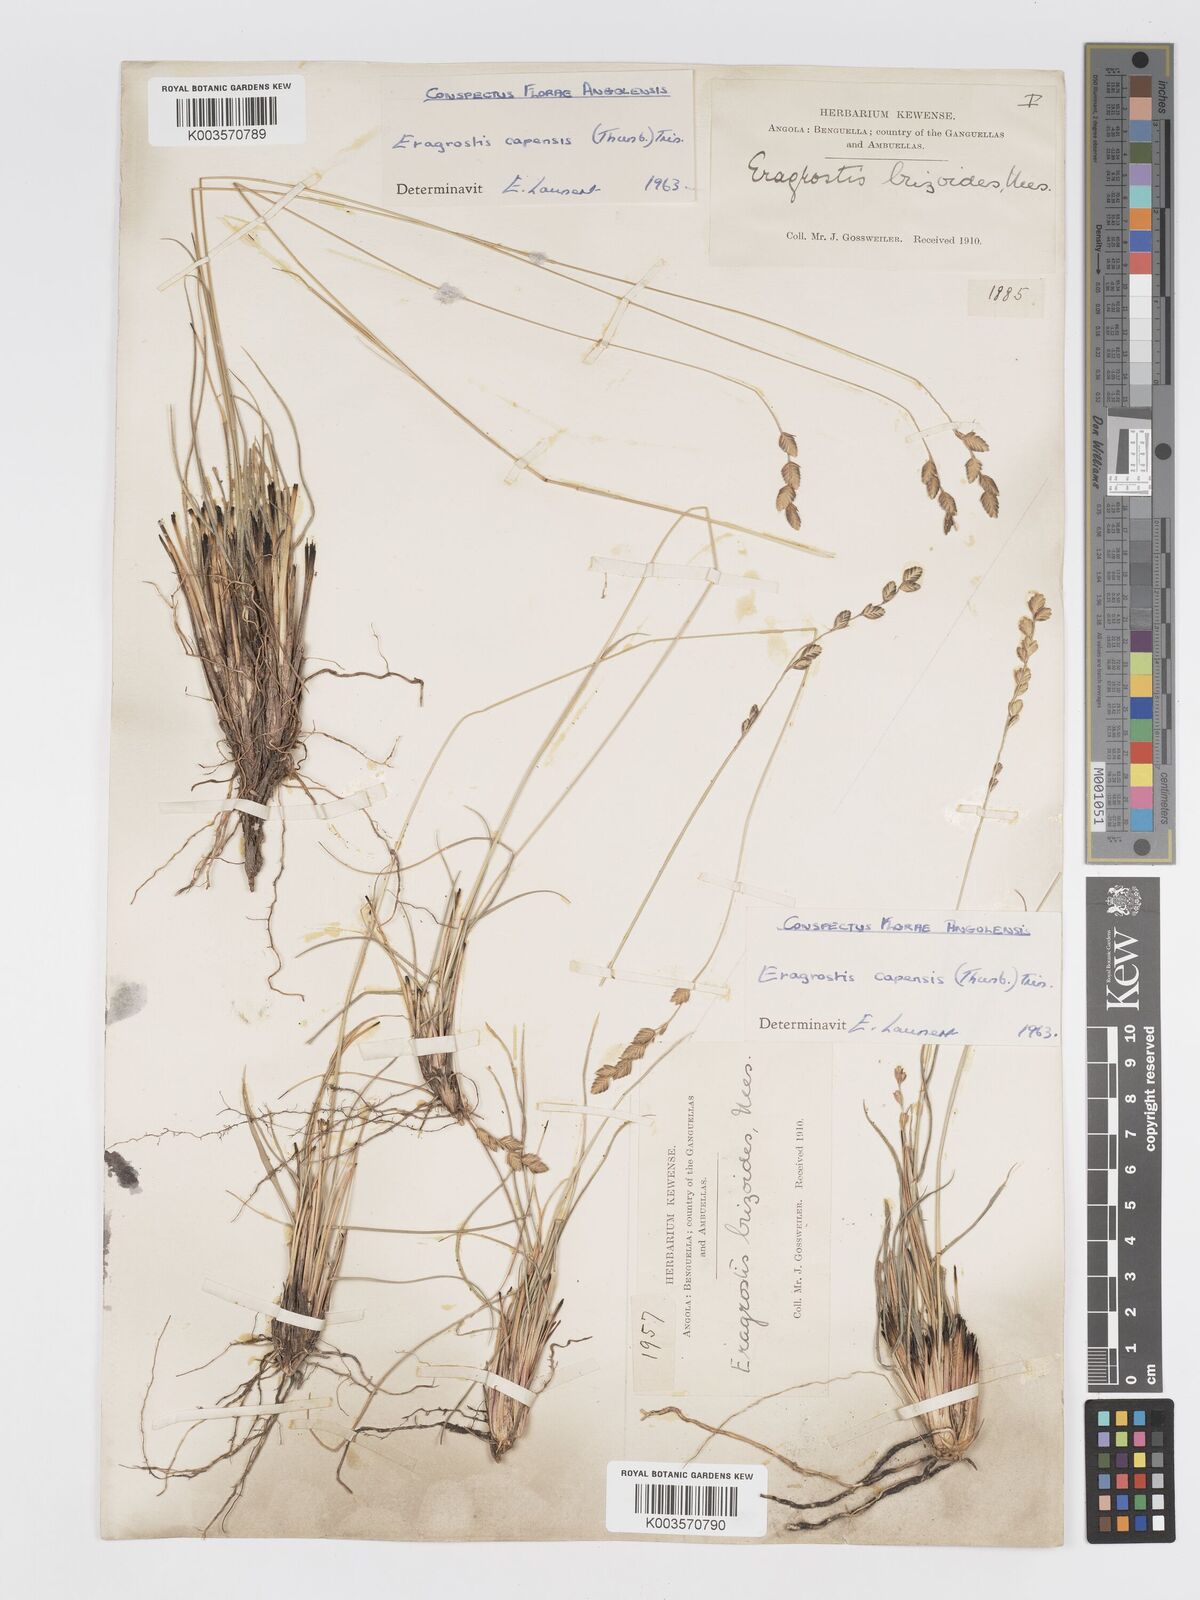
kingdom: Plantae
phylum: Tracheophyta
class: Liliopsida
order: Poales
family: Poaceae
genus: Eragrostis
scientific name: Eragrostis capensis
